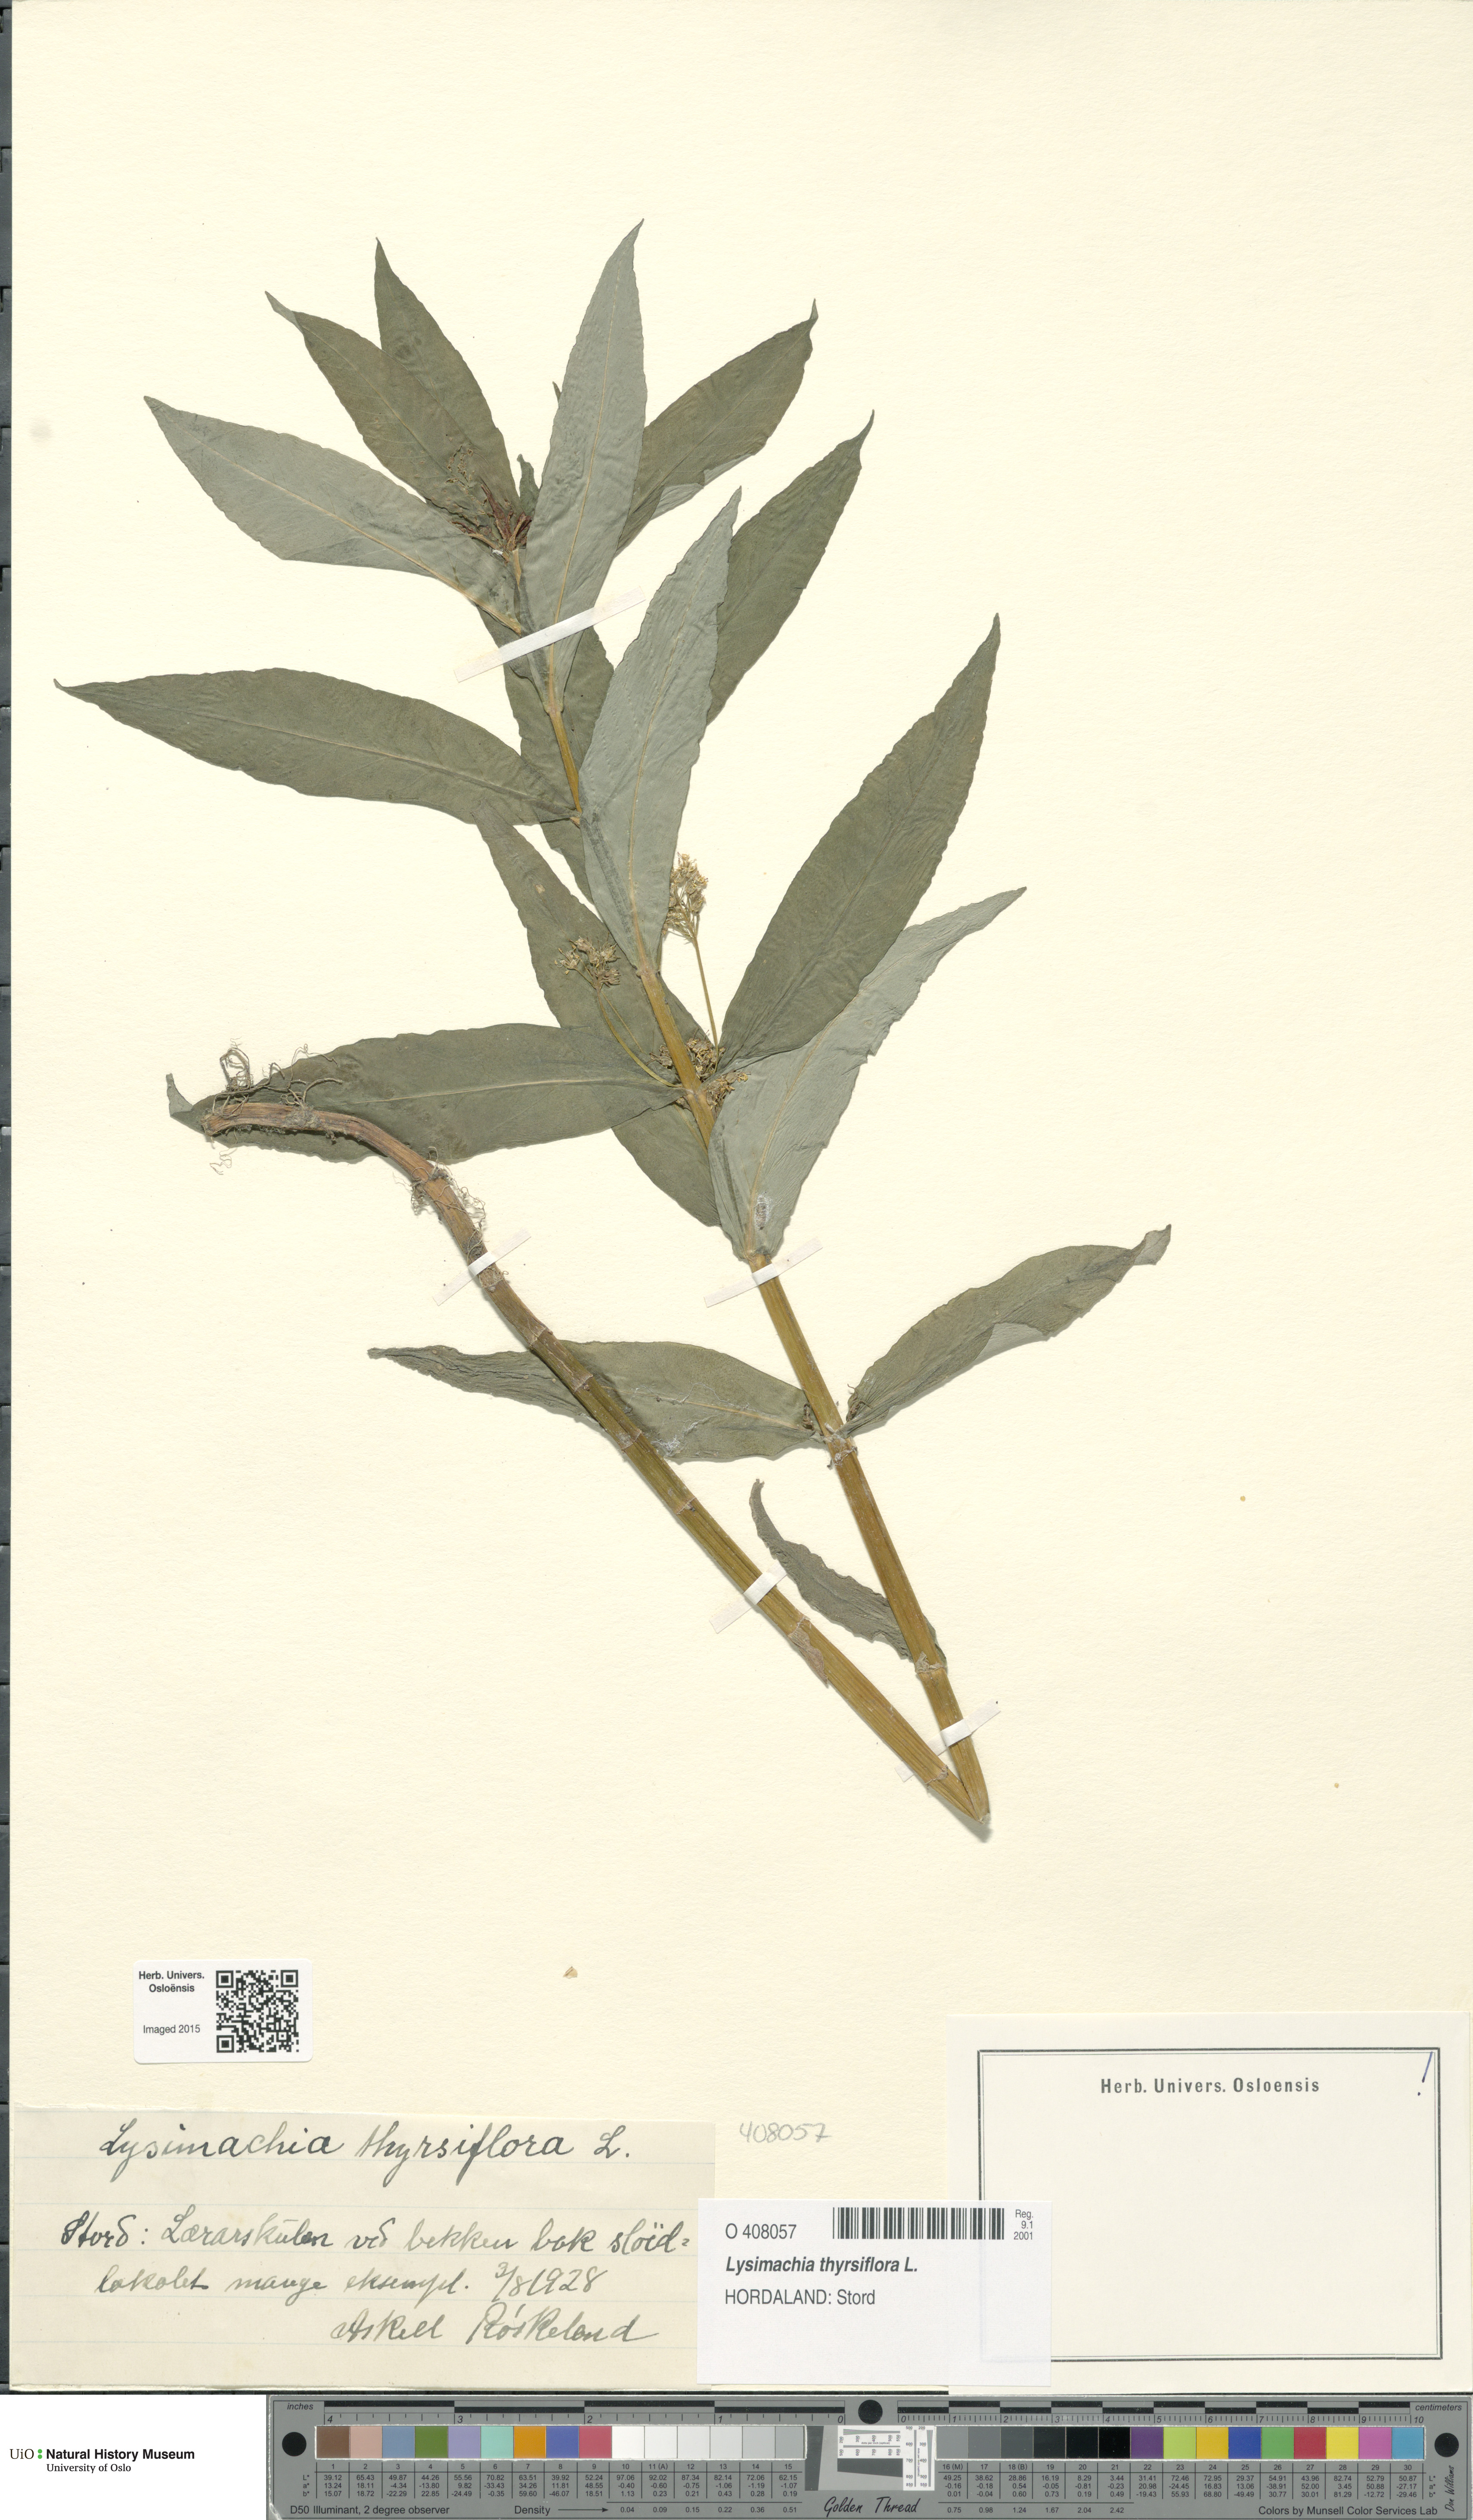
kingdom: Plantae
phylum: Tracheophyta
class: Magnoliopsida
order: Ericales
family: Primulaceae
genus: Lysimachia
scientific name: Lysimachia thyrsiflora
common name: Tufted loosestrife
